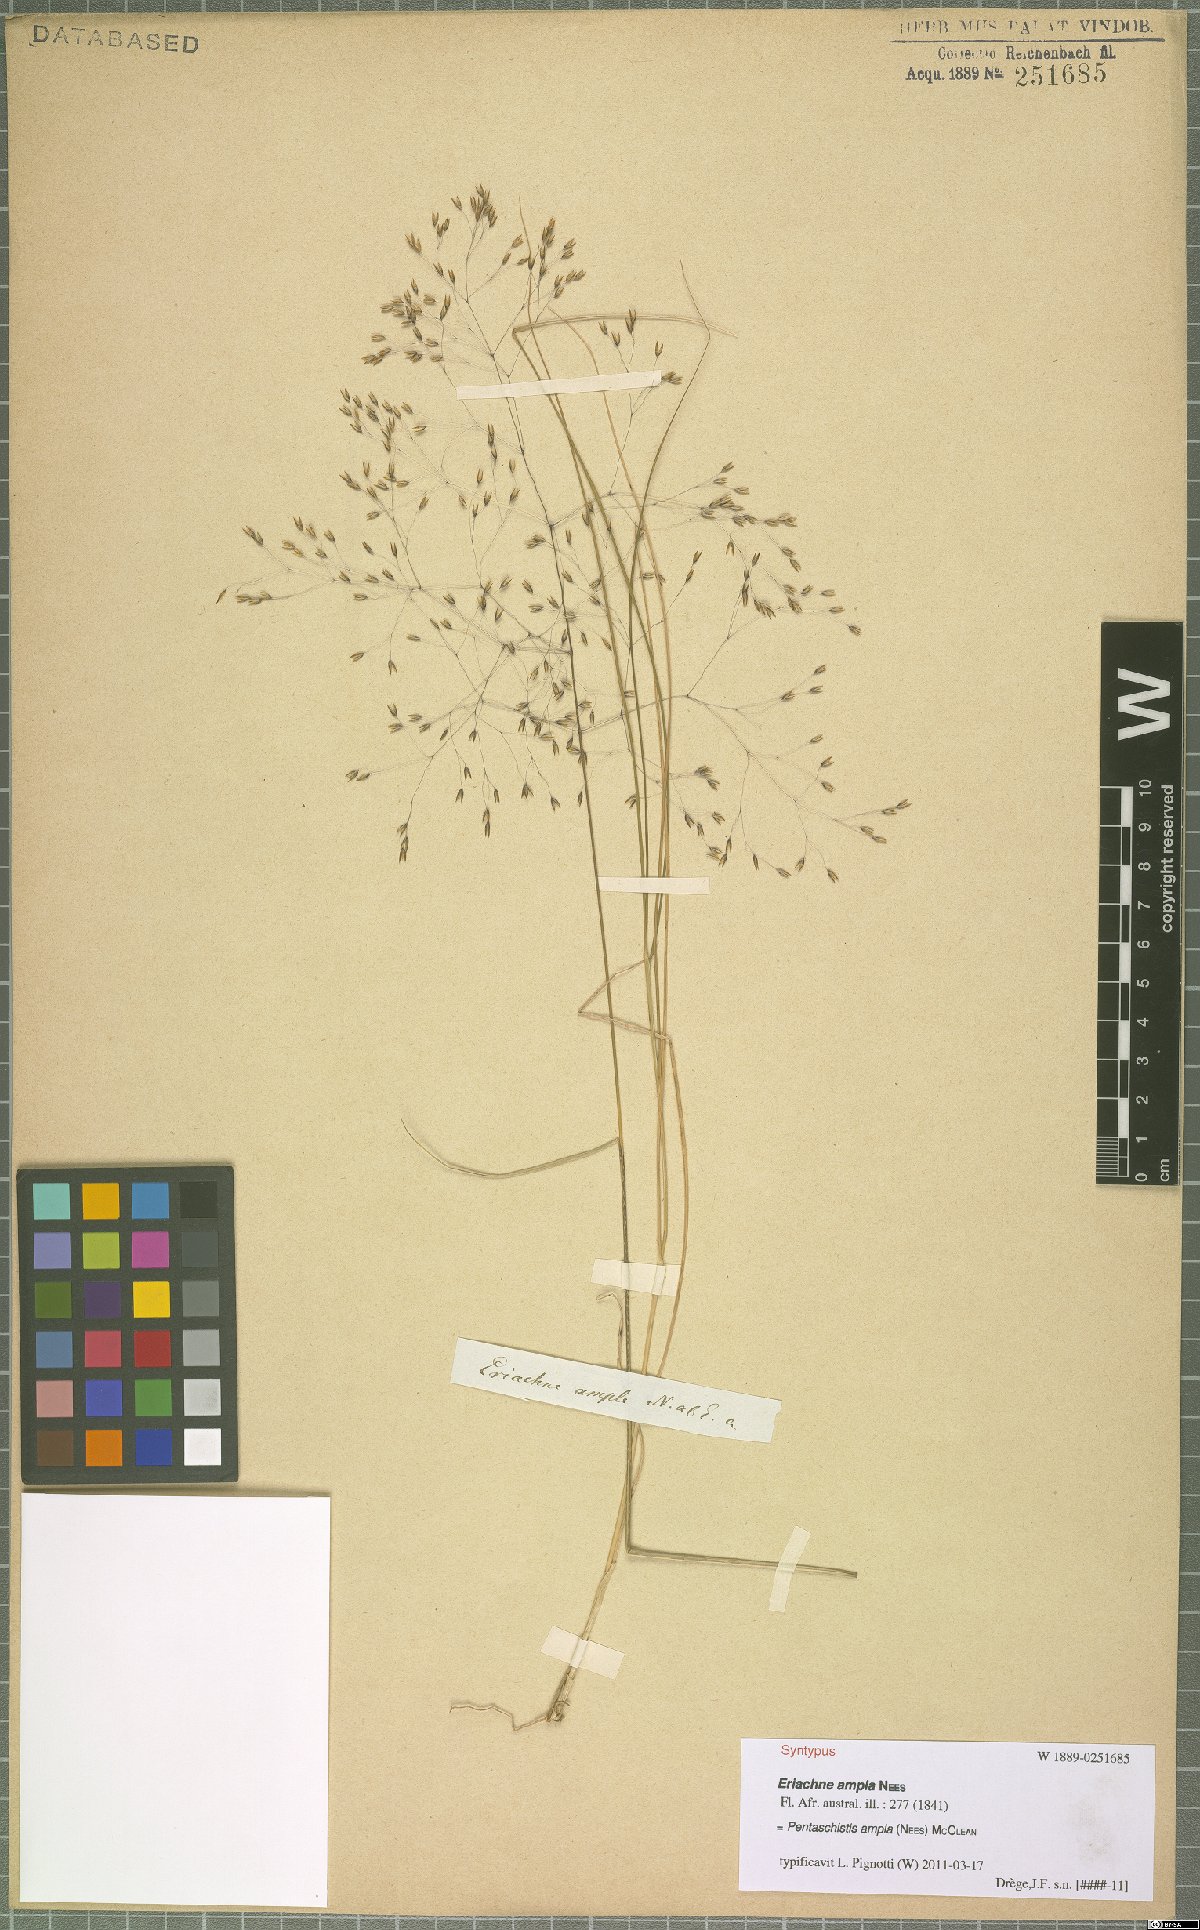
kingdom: Plantae
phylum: Tracheophyta
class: Liliopsida
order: Poales
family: Poaceae
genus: Pentameris
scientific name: Pentameris ampla
